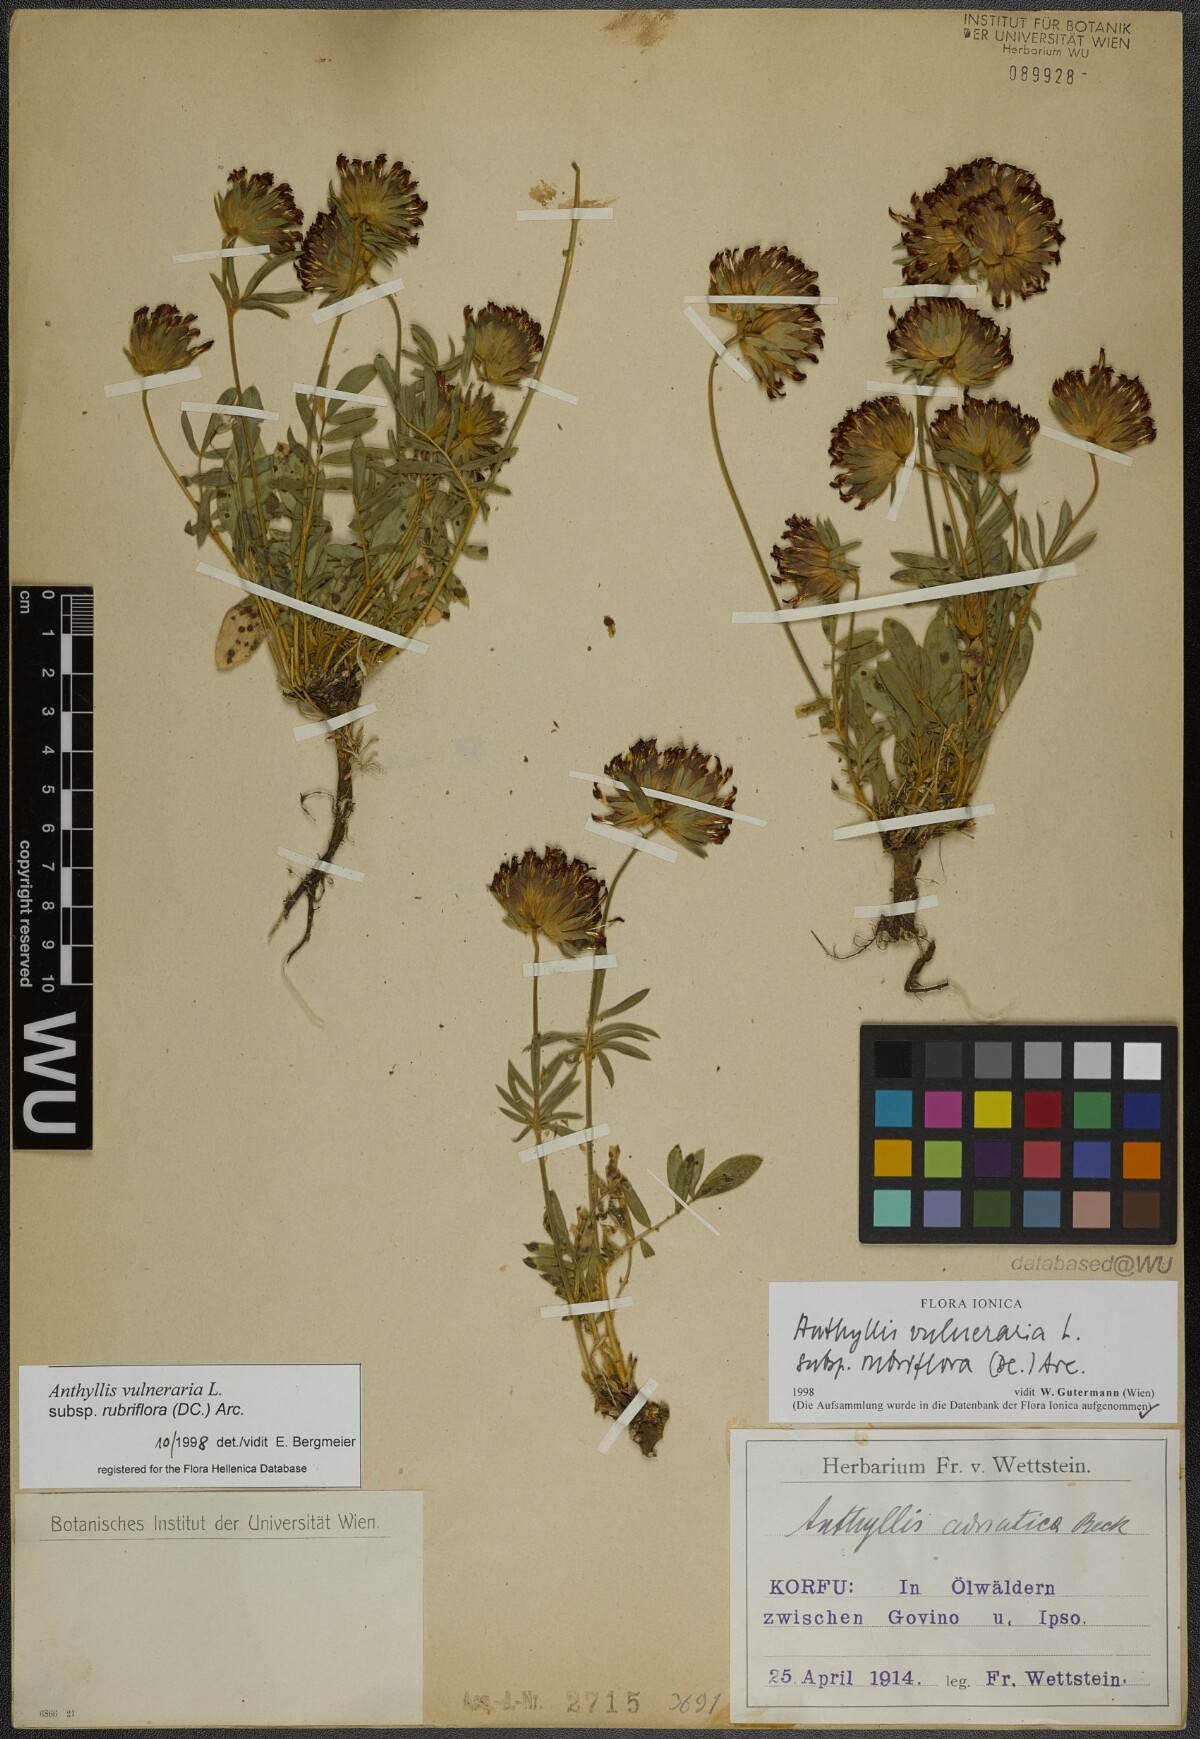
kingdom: Plantae
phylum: Tracheophyta
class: Magnoliopsida
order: Fabales
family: Fabaceae
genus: Anthyllis
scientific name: Anthyllis vulneraria
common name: Kidney vetch
